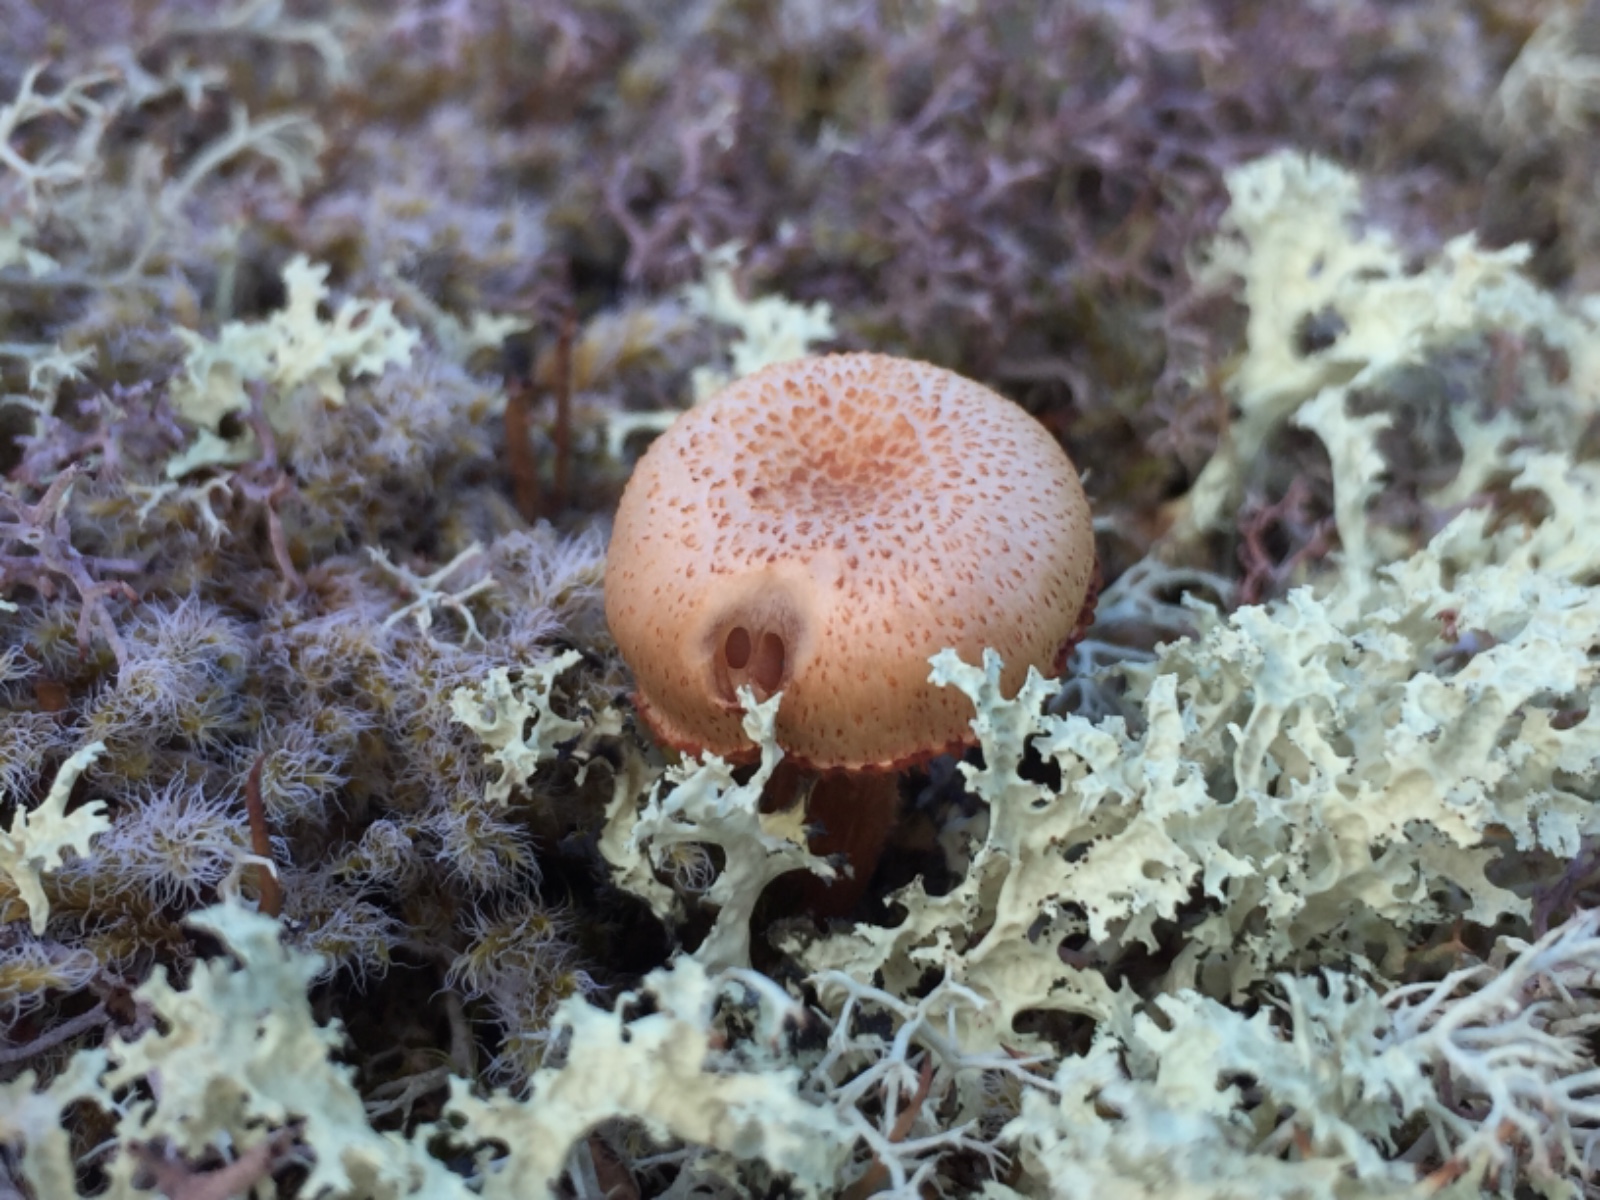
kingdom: Fungi
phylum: Basidiomycota
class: Agaricomycetes
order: Agaricales
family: Hydnangiaceae
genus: Laccaria
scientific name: Laccaria
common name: ametysthat
